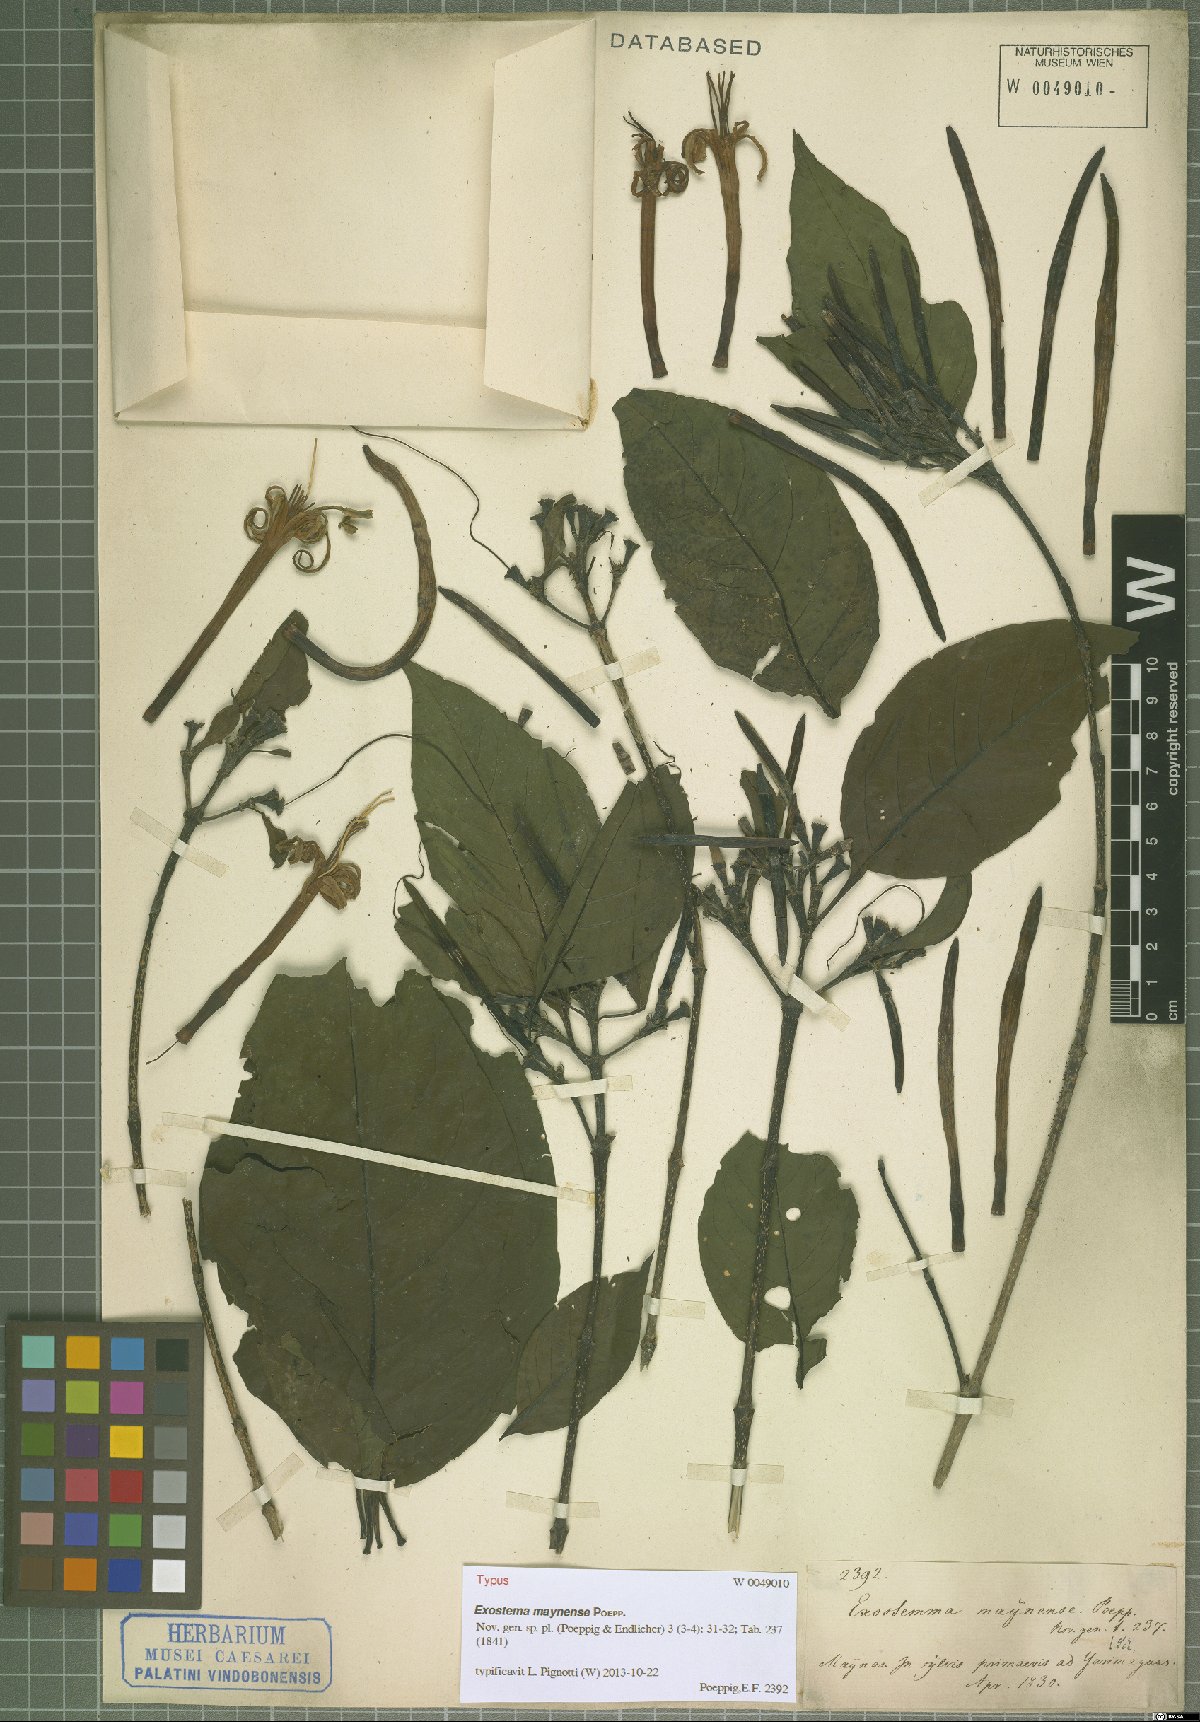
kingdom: Plantae
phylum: Tracheophyta
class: Magnoliopsida
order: Gentianales
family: Rubiaceae
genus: Adolphoduckea
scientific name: Adolphoduckea maynensis
